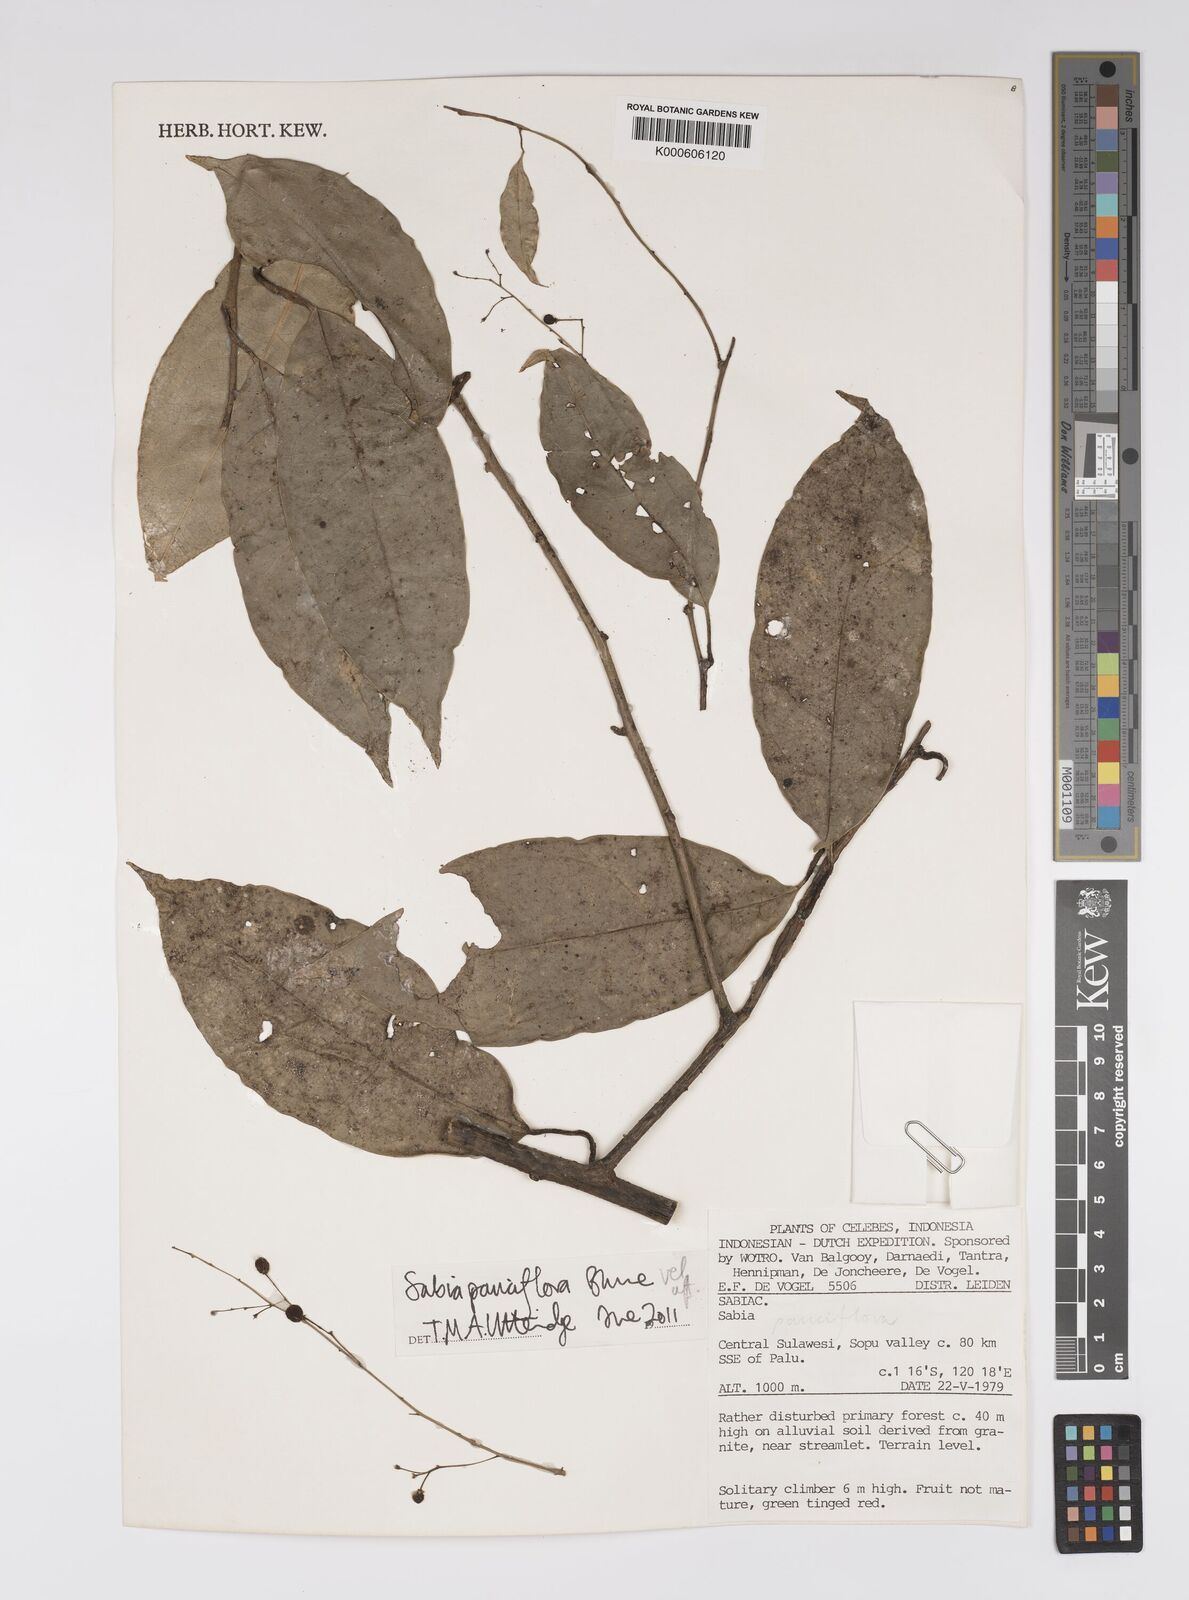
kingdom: Plantae
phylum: Tracheophyta
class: Magnoliopsida
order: Proteales
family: Sabiaceae
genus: Sabia
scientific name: Sabia pauciflora
